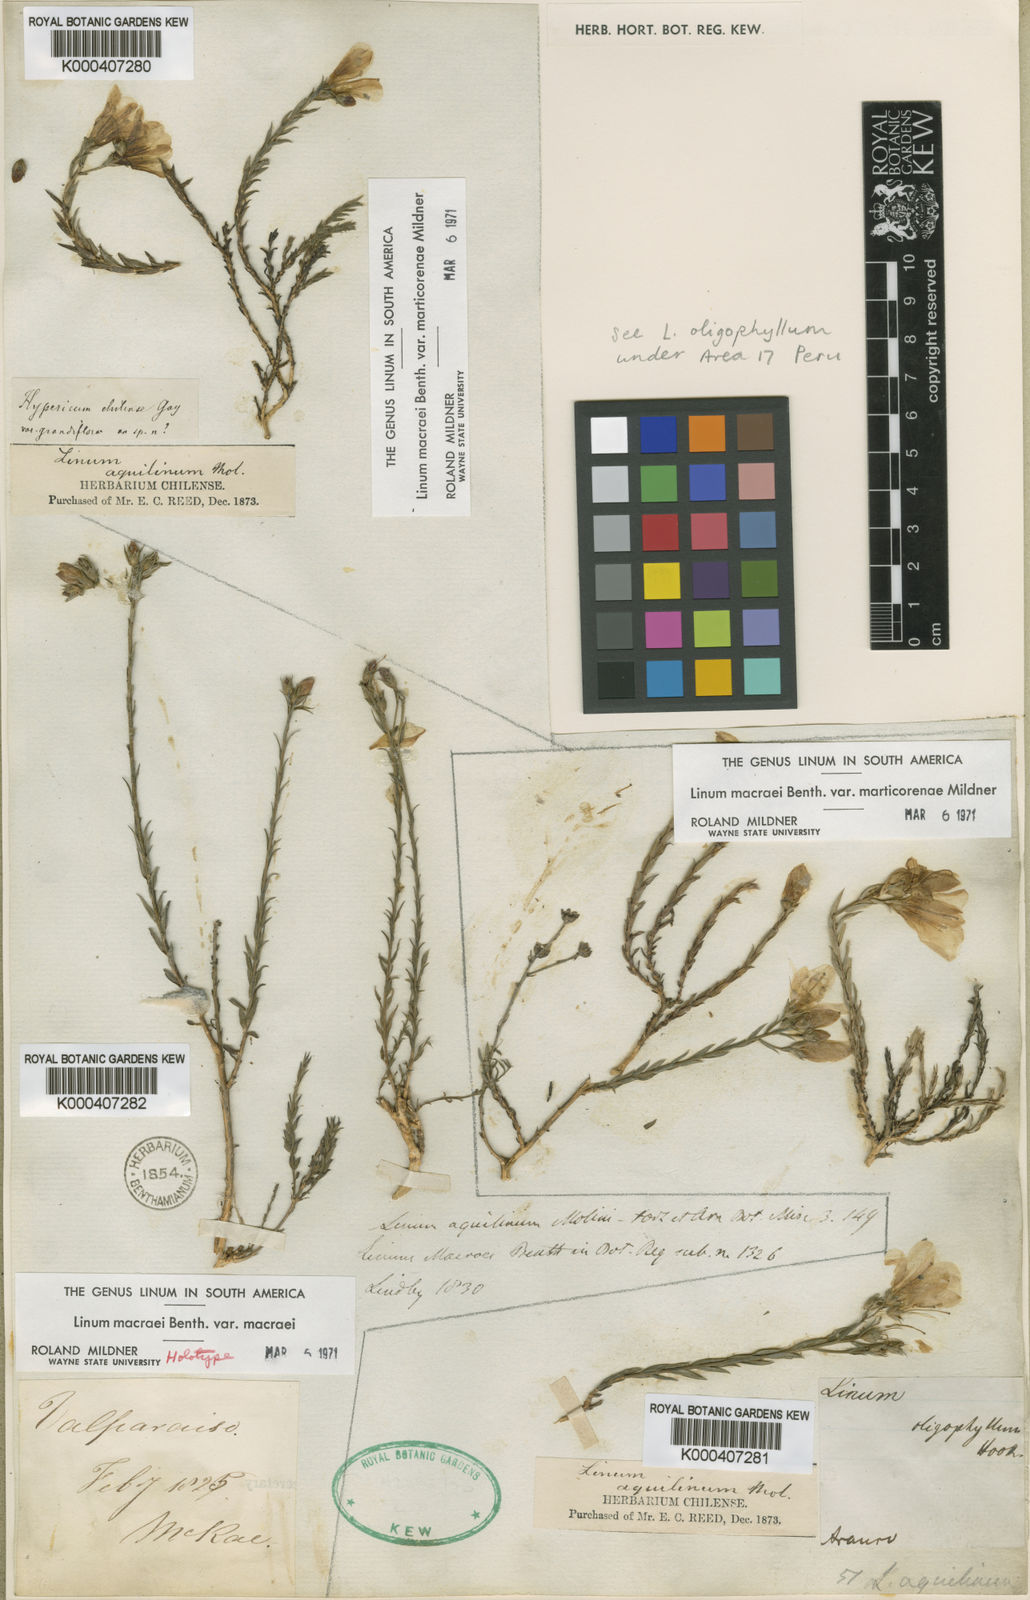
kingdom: Plantae
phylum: Tracheophyta
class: Magnoliopsida
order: Malpighiales
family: Linaceae
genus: Linum
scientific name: Linum macraei
